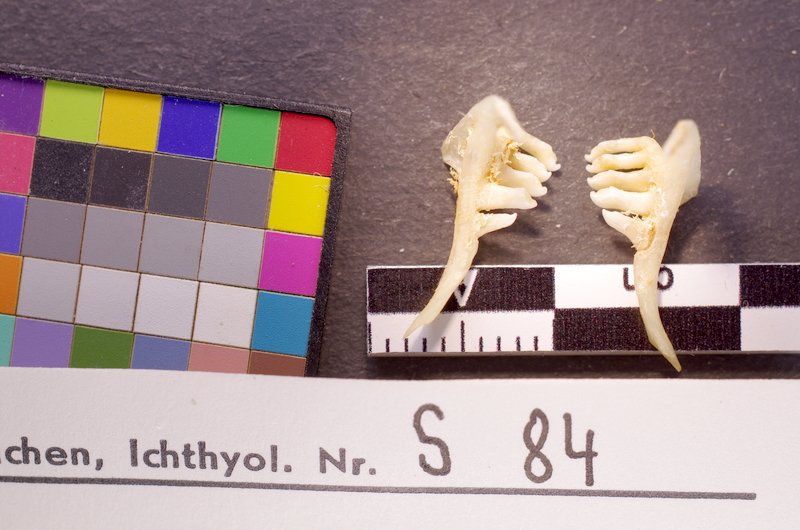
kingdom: Animalia
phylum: Chordata
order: Cypriniformes
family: Cyprinidae
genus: Ballerus
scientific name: Ballerus sapa
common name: White-eye bream
